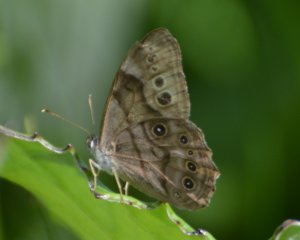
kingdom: Animalia
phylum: Arthropoda
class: Insecta
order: Lepidoptera
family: Nymphalidae
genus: Lethe
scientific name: Lethe anthedon
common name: Northern Pearly-Eye
